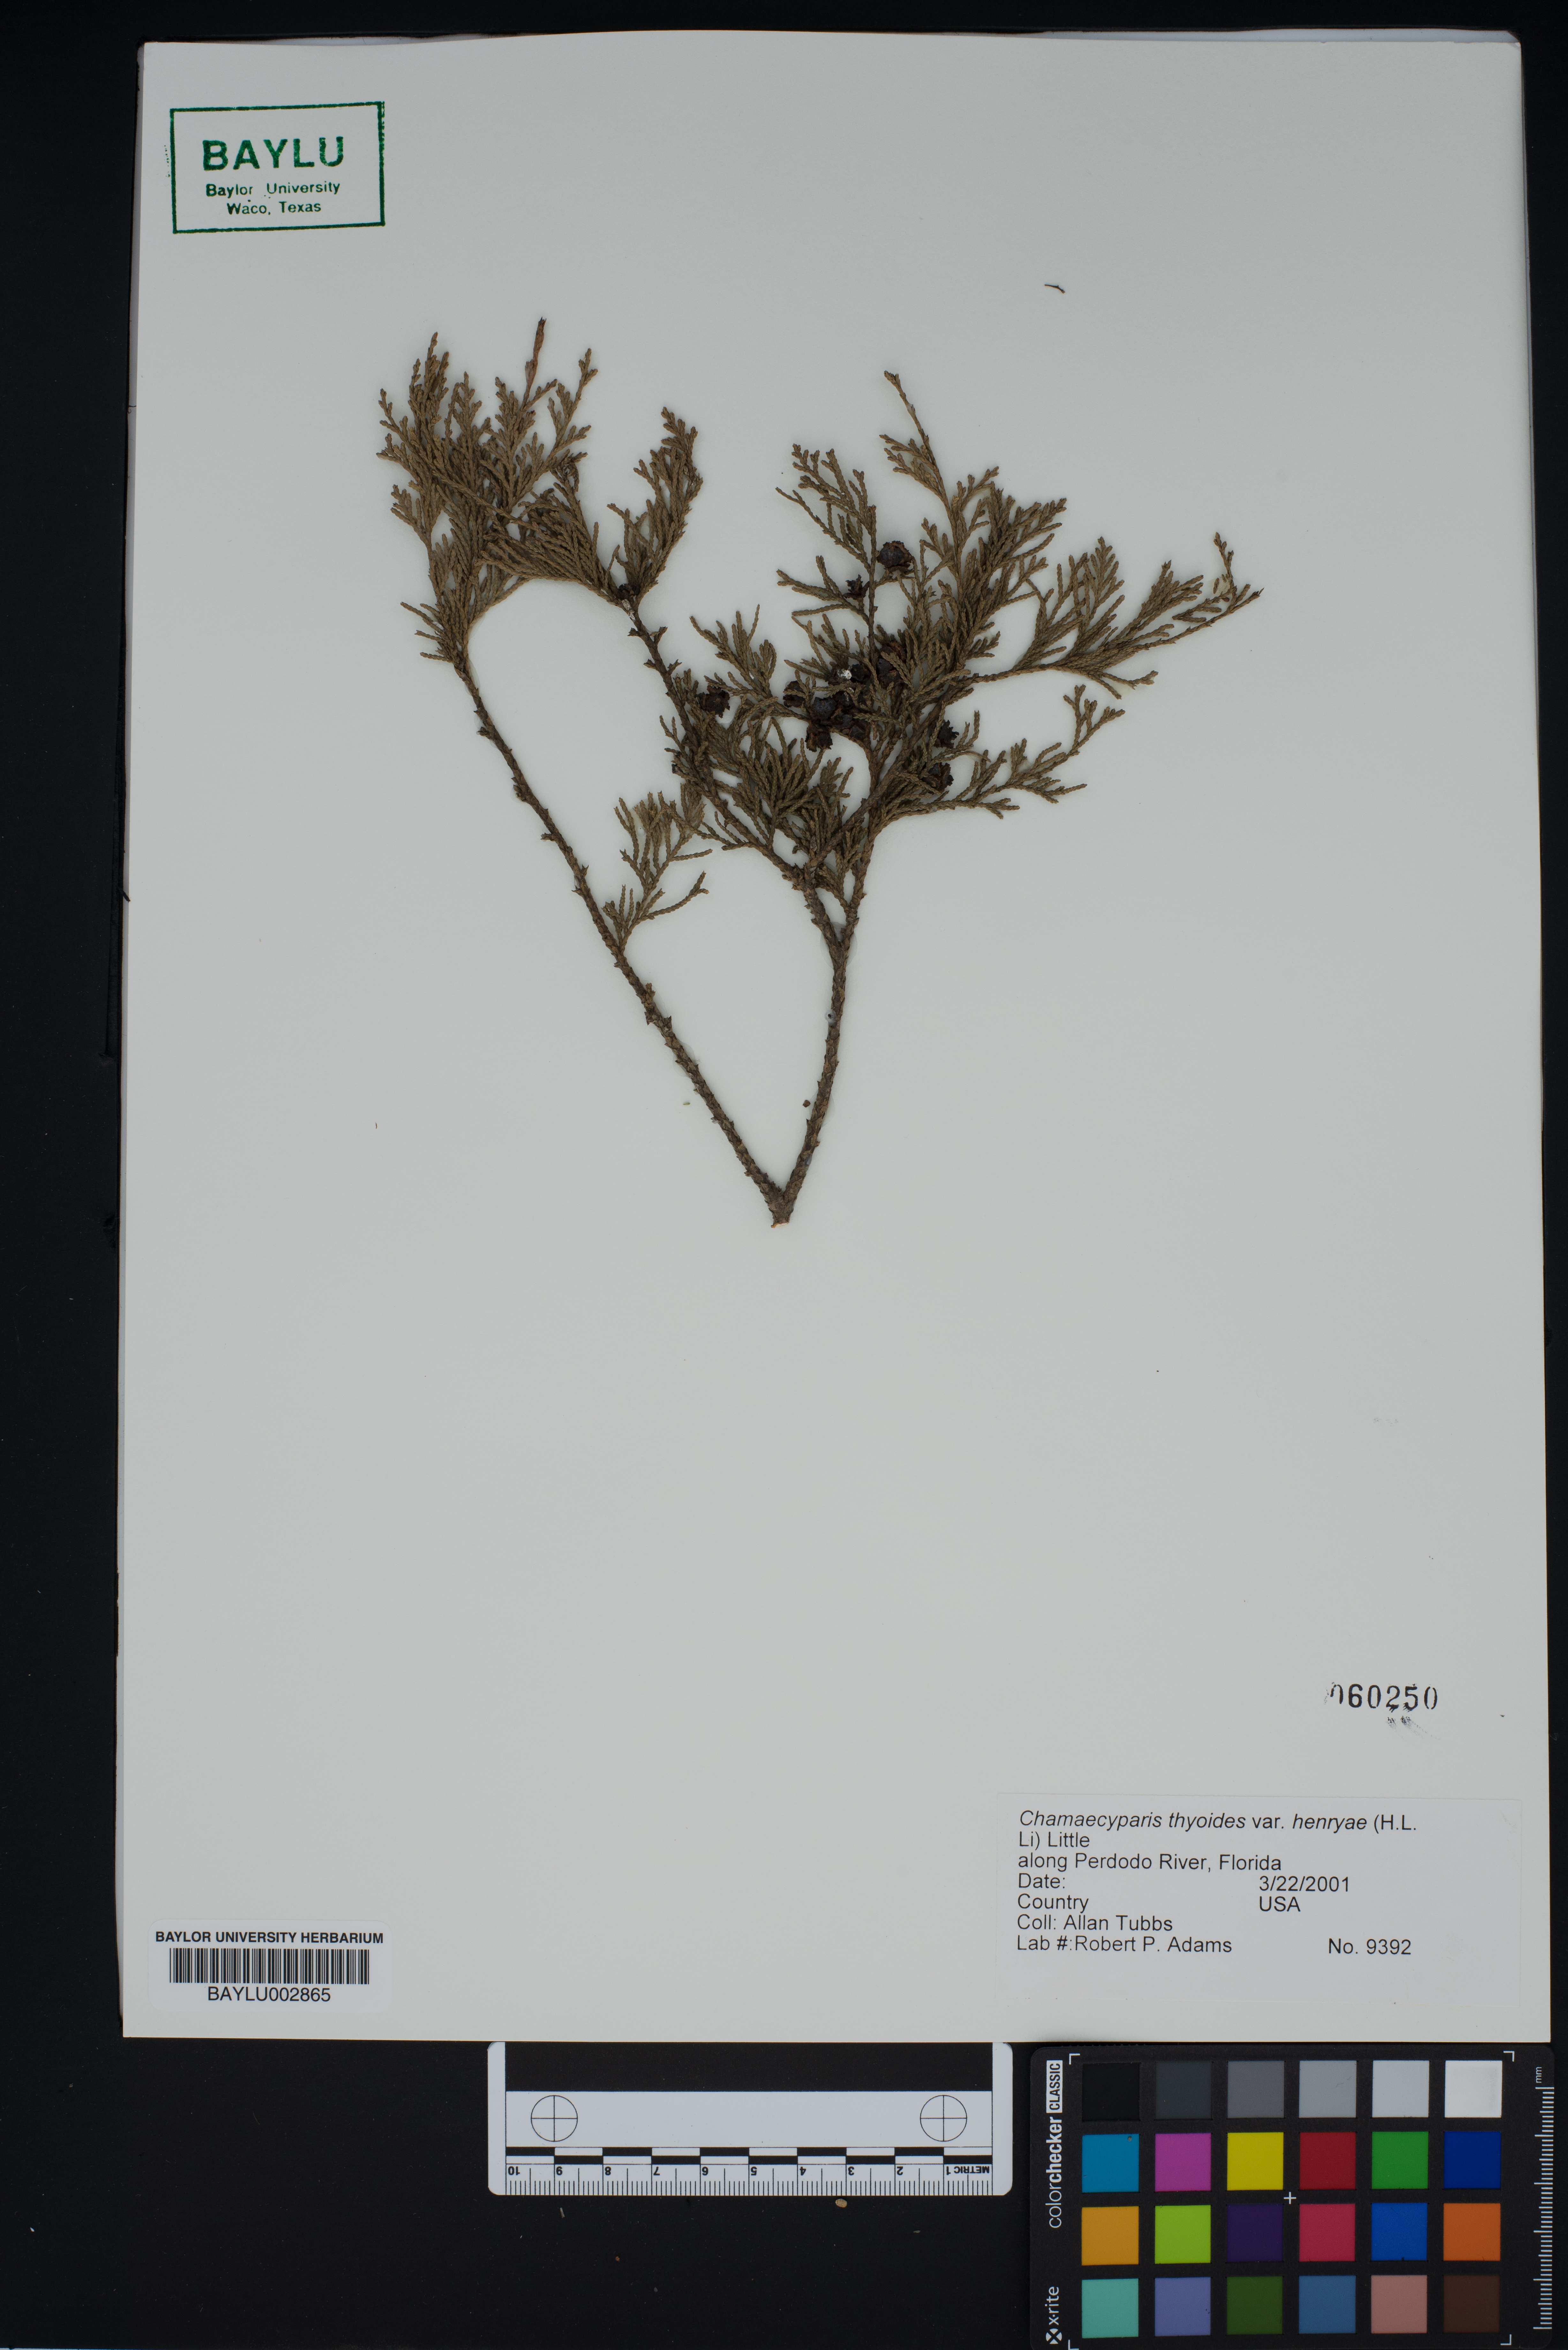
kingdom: Plantae
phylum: Tracheophyta
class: Pinopsida
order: Pinales
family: Cupressaceae
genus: Chamaecyparis
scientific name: Chamaecyparis thyoides
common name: Atlantic white cedar
